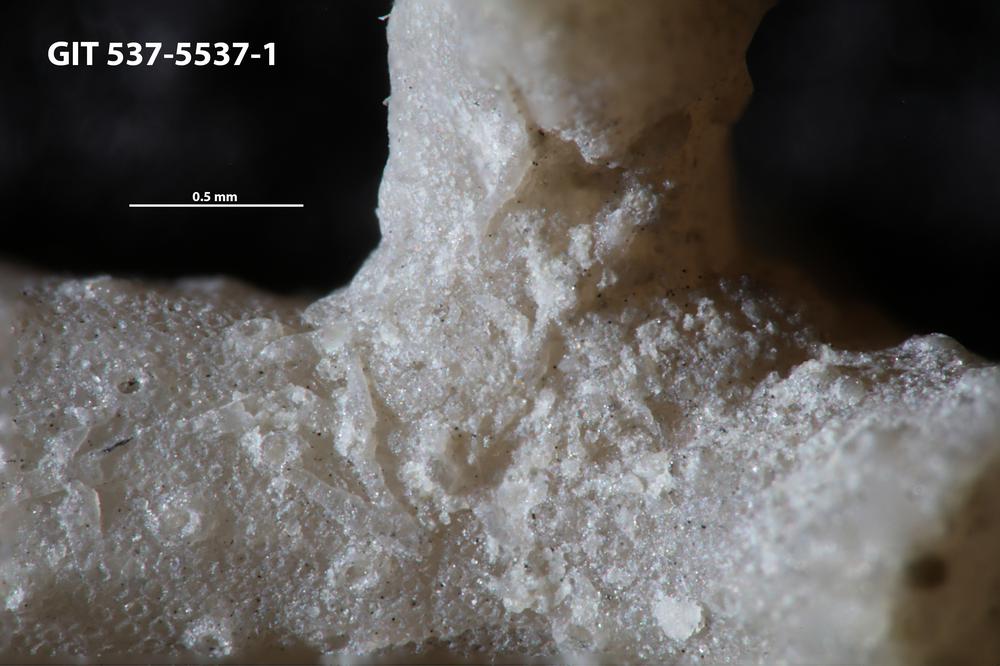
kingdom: Animalia
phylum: Bryozoa
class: Stenolaemata
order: Cyclostomatida
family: Corynotrypidae
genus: Corynotrypa
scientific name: Corynotrypa
